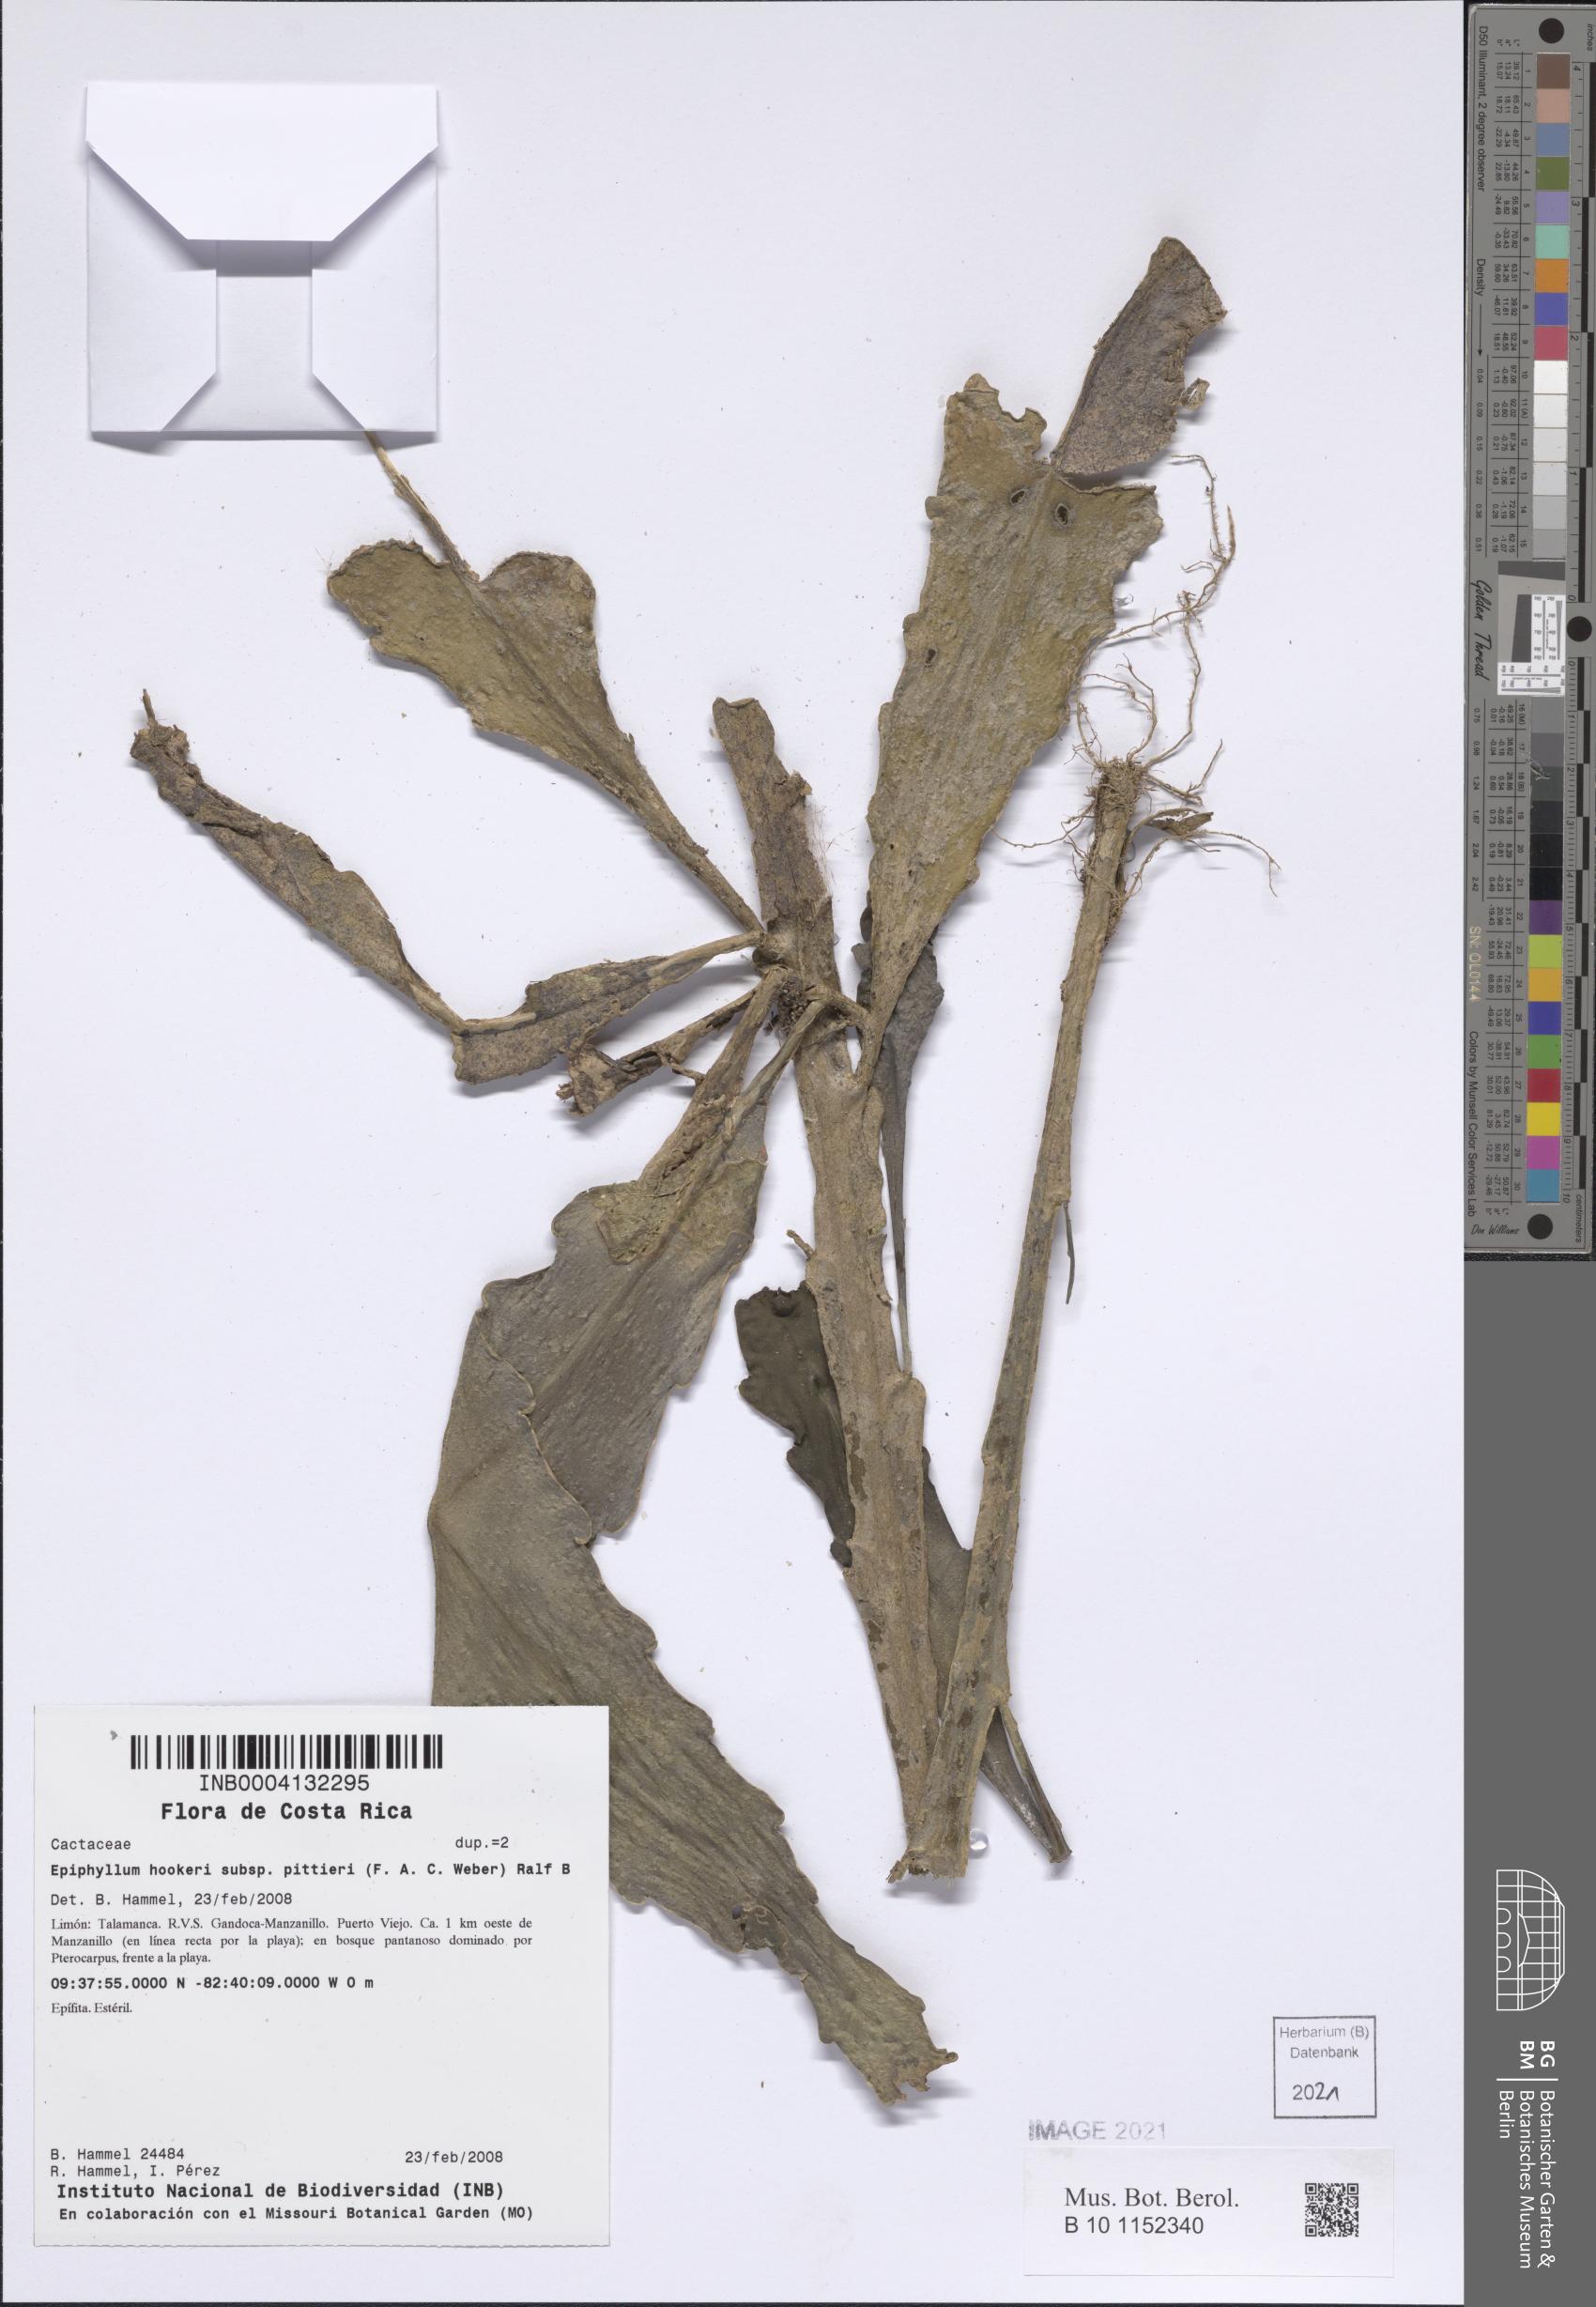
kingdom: Plantae
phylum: Tracheophyta
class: Magnoliopsida
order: Caryophyllales
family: Cactaceae
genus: Epiphyllum
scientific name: Epiphyllum hookeri
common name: Climbing cactus
